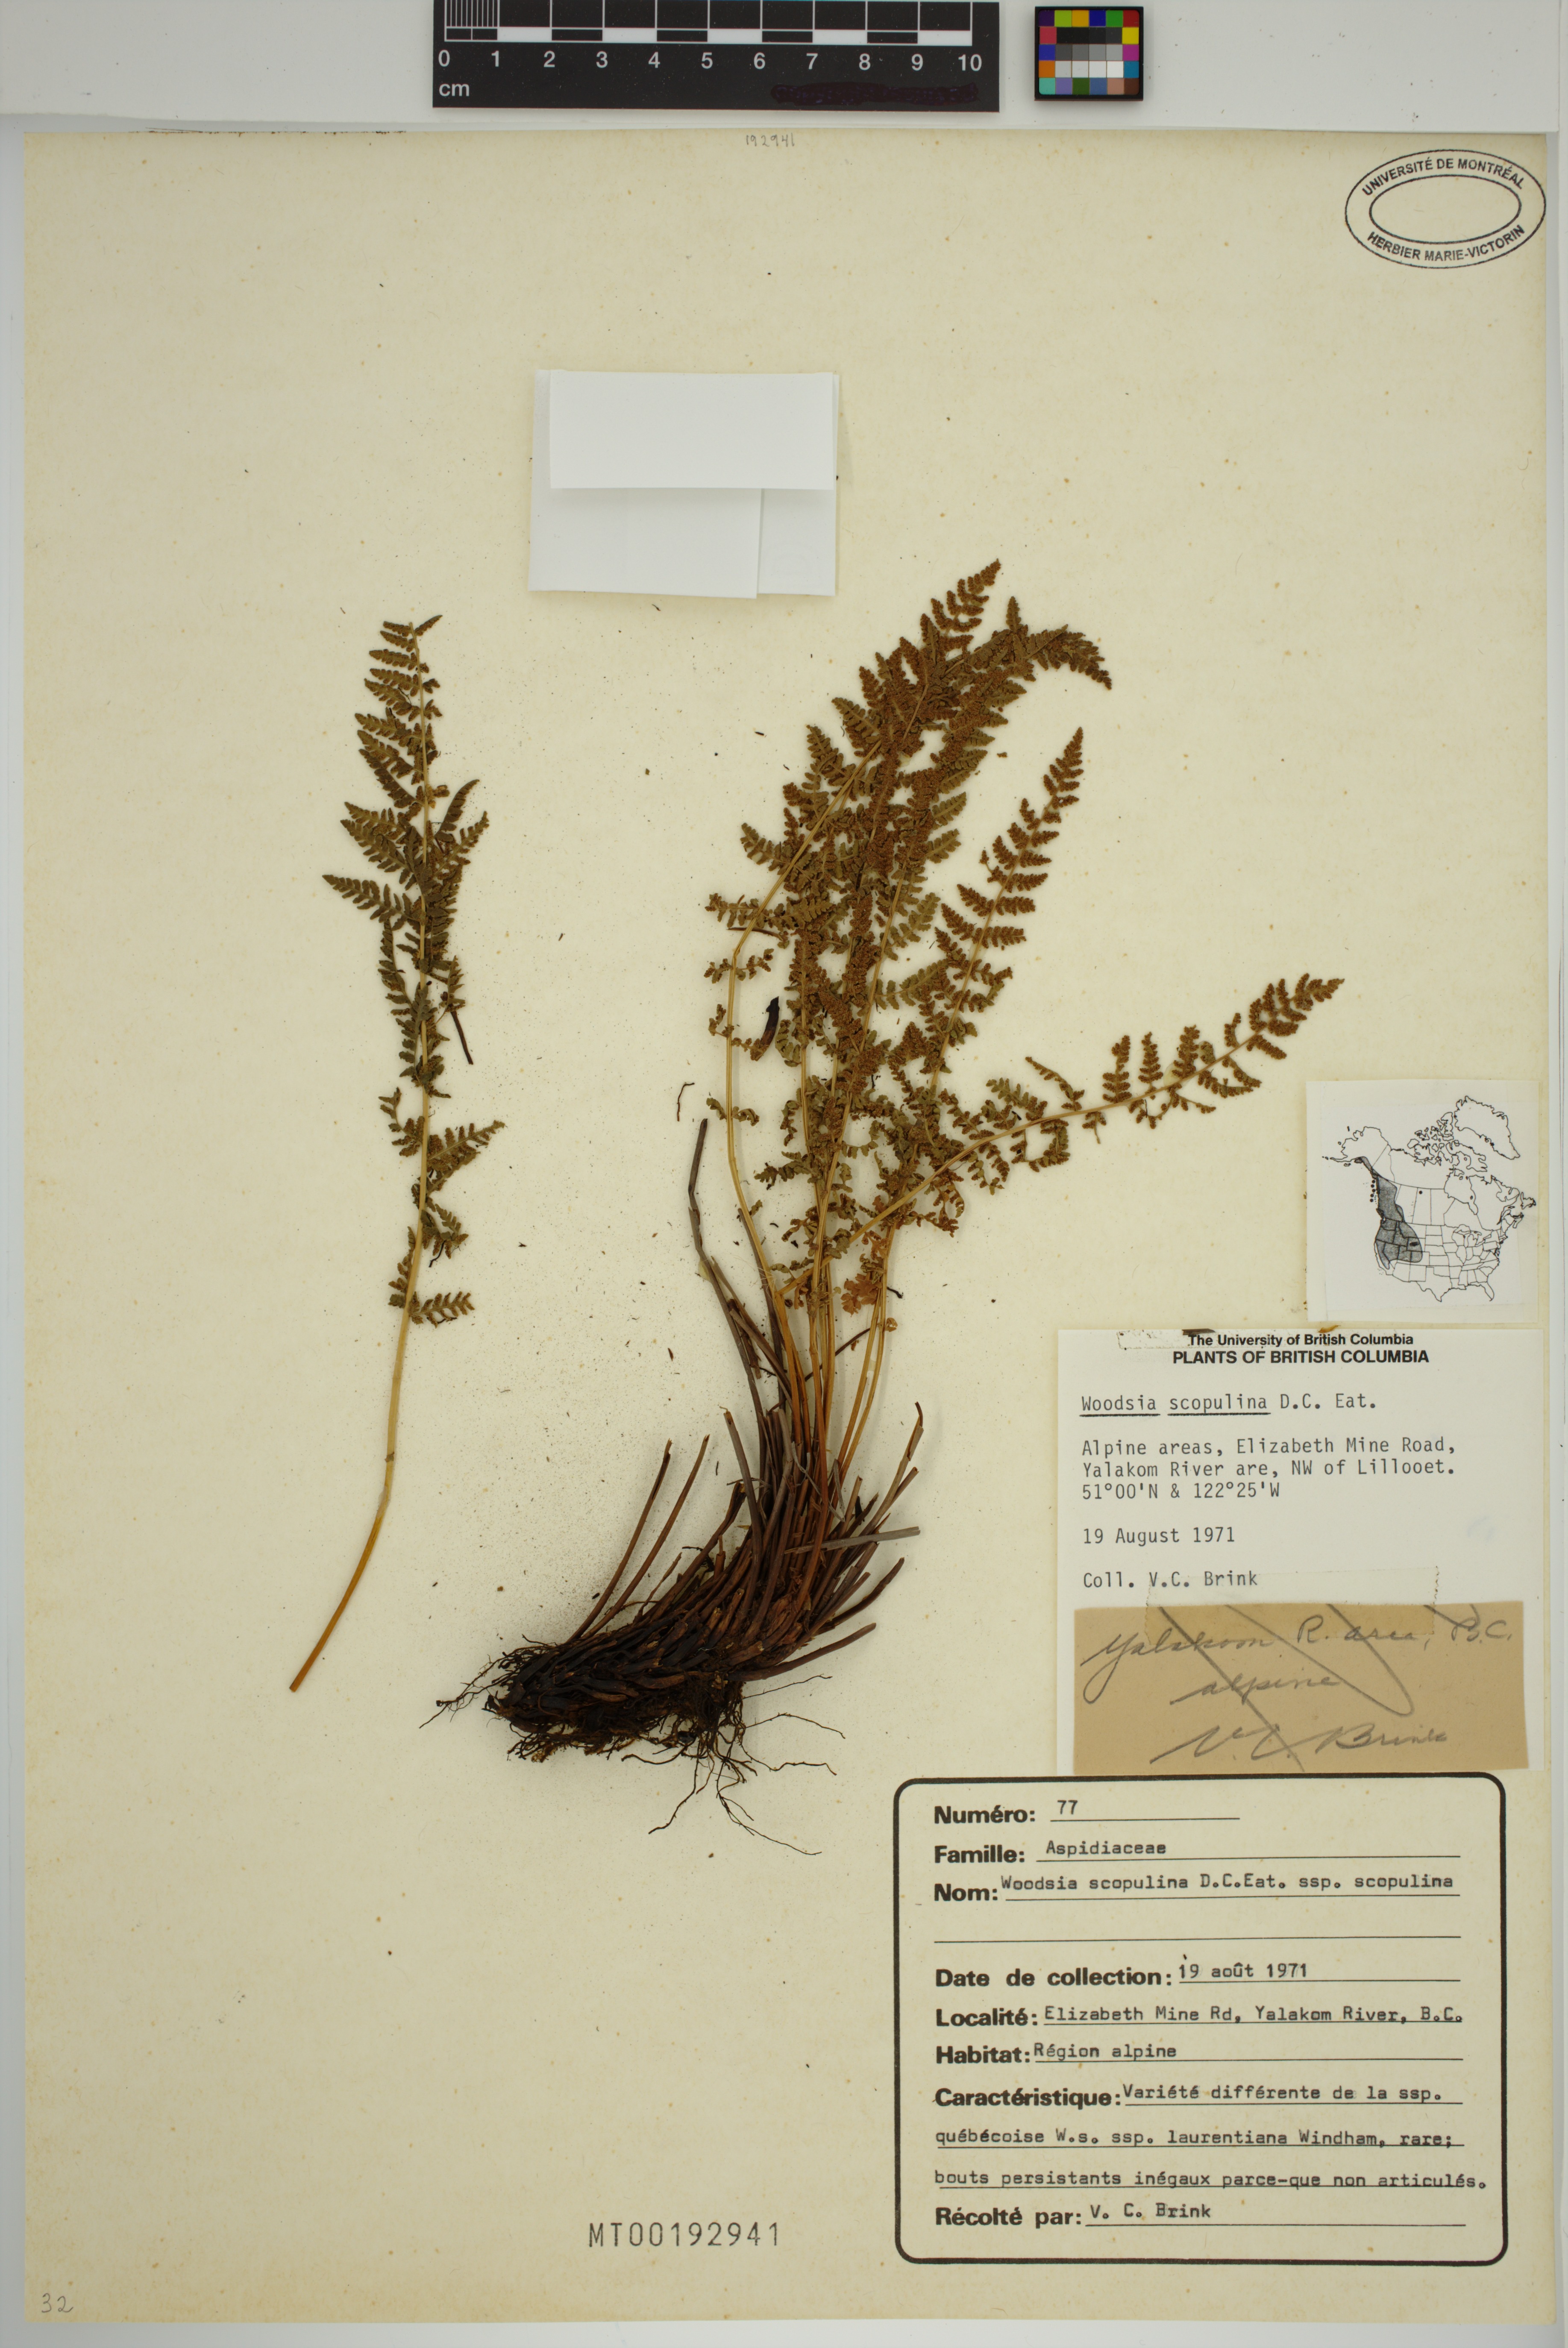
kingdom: Plantae
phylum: Tracheophyta
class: Polypodiopsida
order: Polypodiales
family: Woodsiaceae
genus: Physematium
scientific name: Physematium scopulinum
